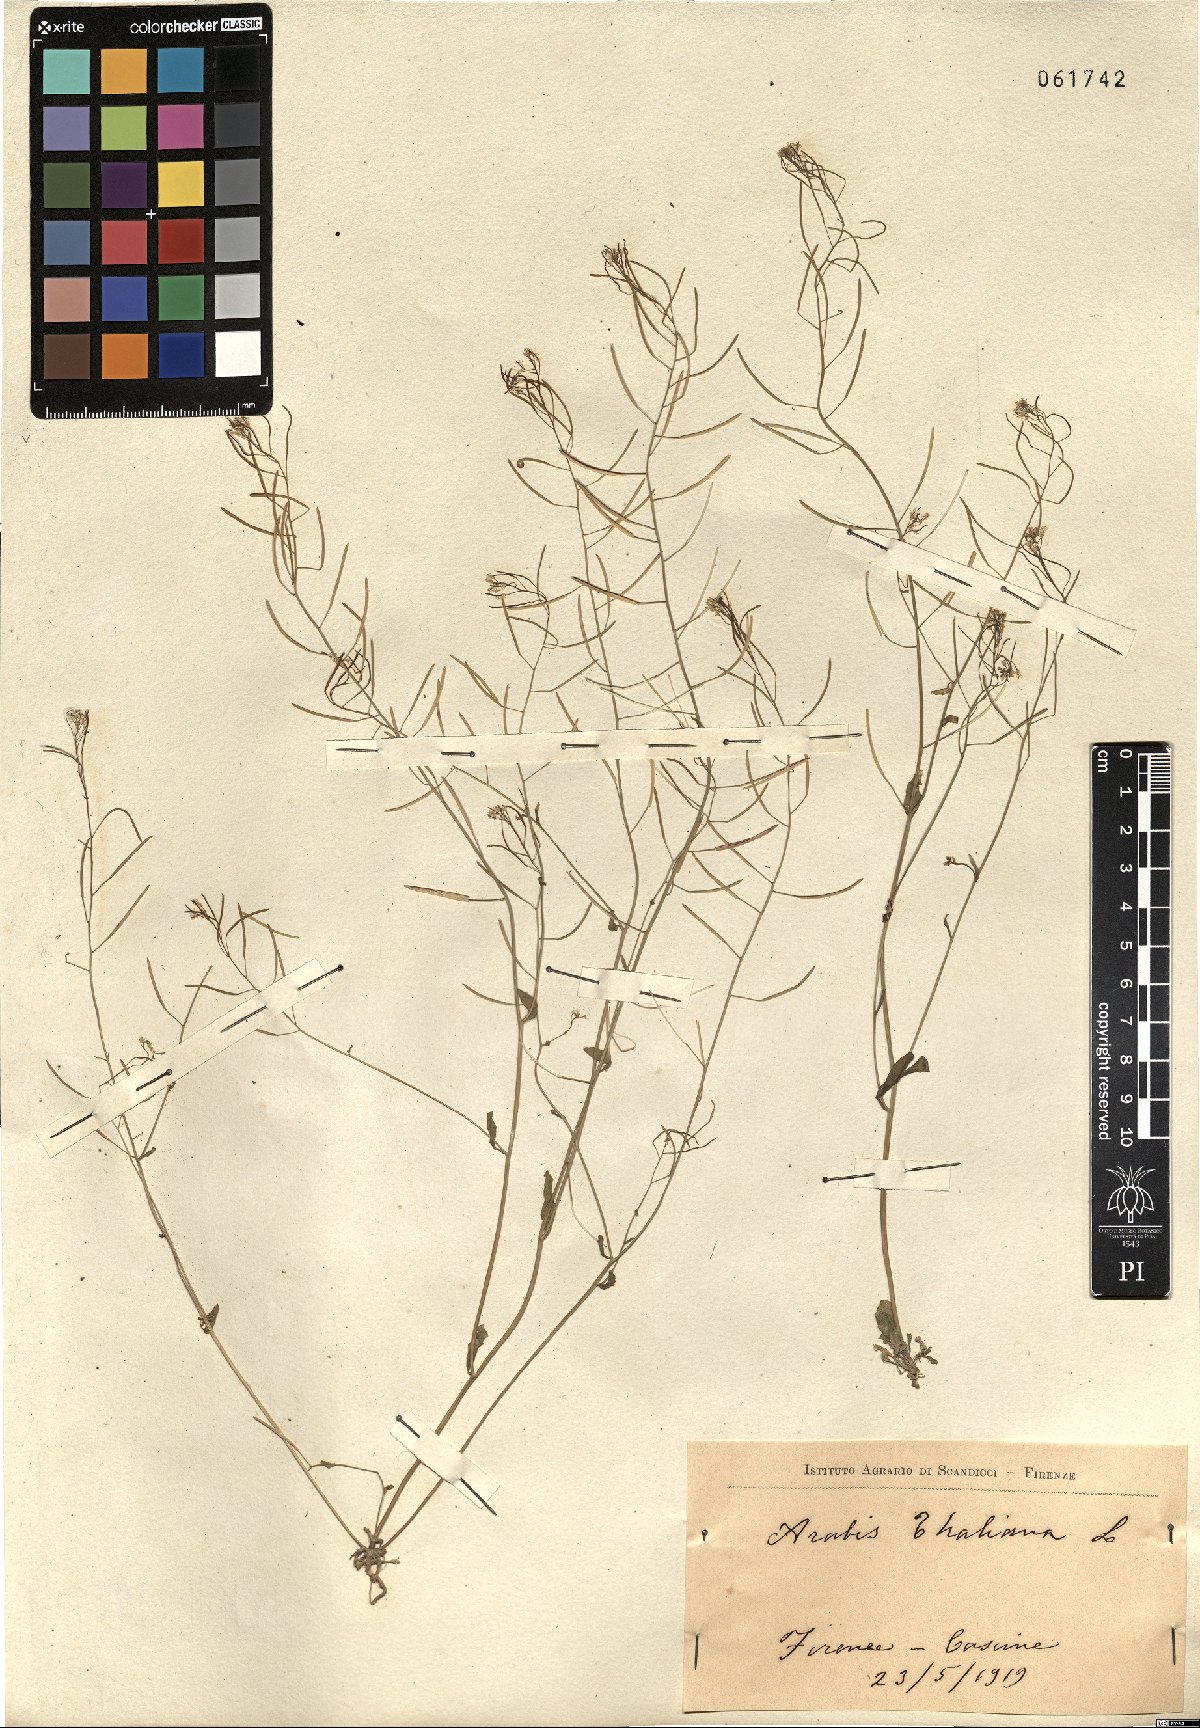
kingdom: Plantae
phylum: Tracheophyta
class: Magnoliopsida
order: Brassicales
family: Brassicaceae
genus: Arabidopsis
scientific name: Arabidopsis thaliana
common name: Thale cress
